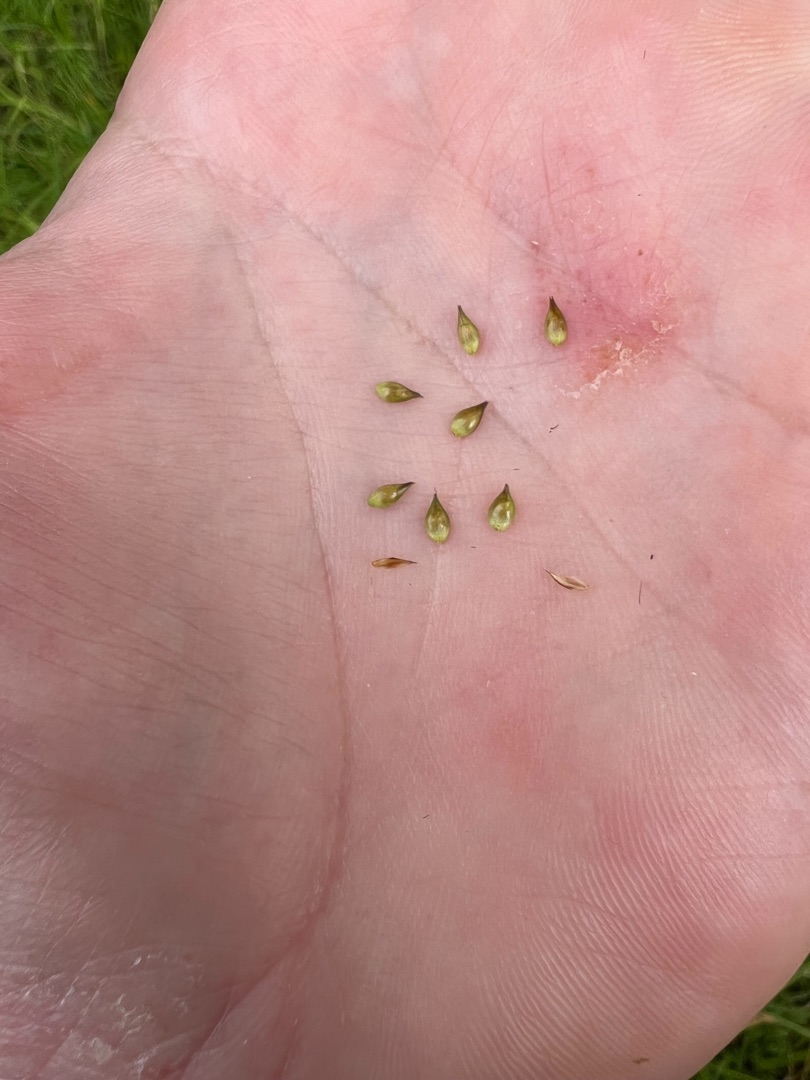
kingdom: Plantae
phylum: Tracheophyta
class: Liliopsida
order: Poales
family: Cyperaceae
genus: Carex
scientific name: Carex spicata
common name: Spidskapslet star
